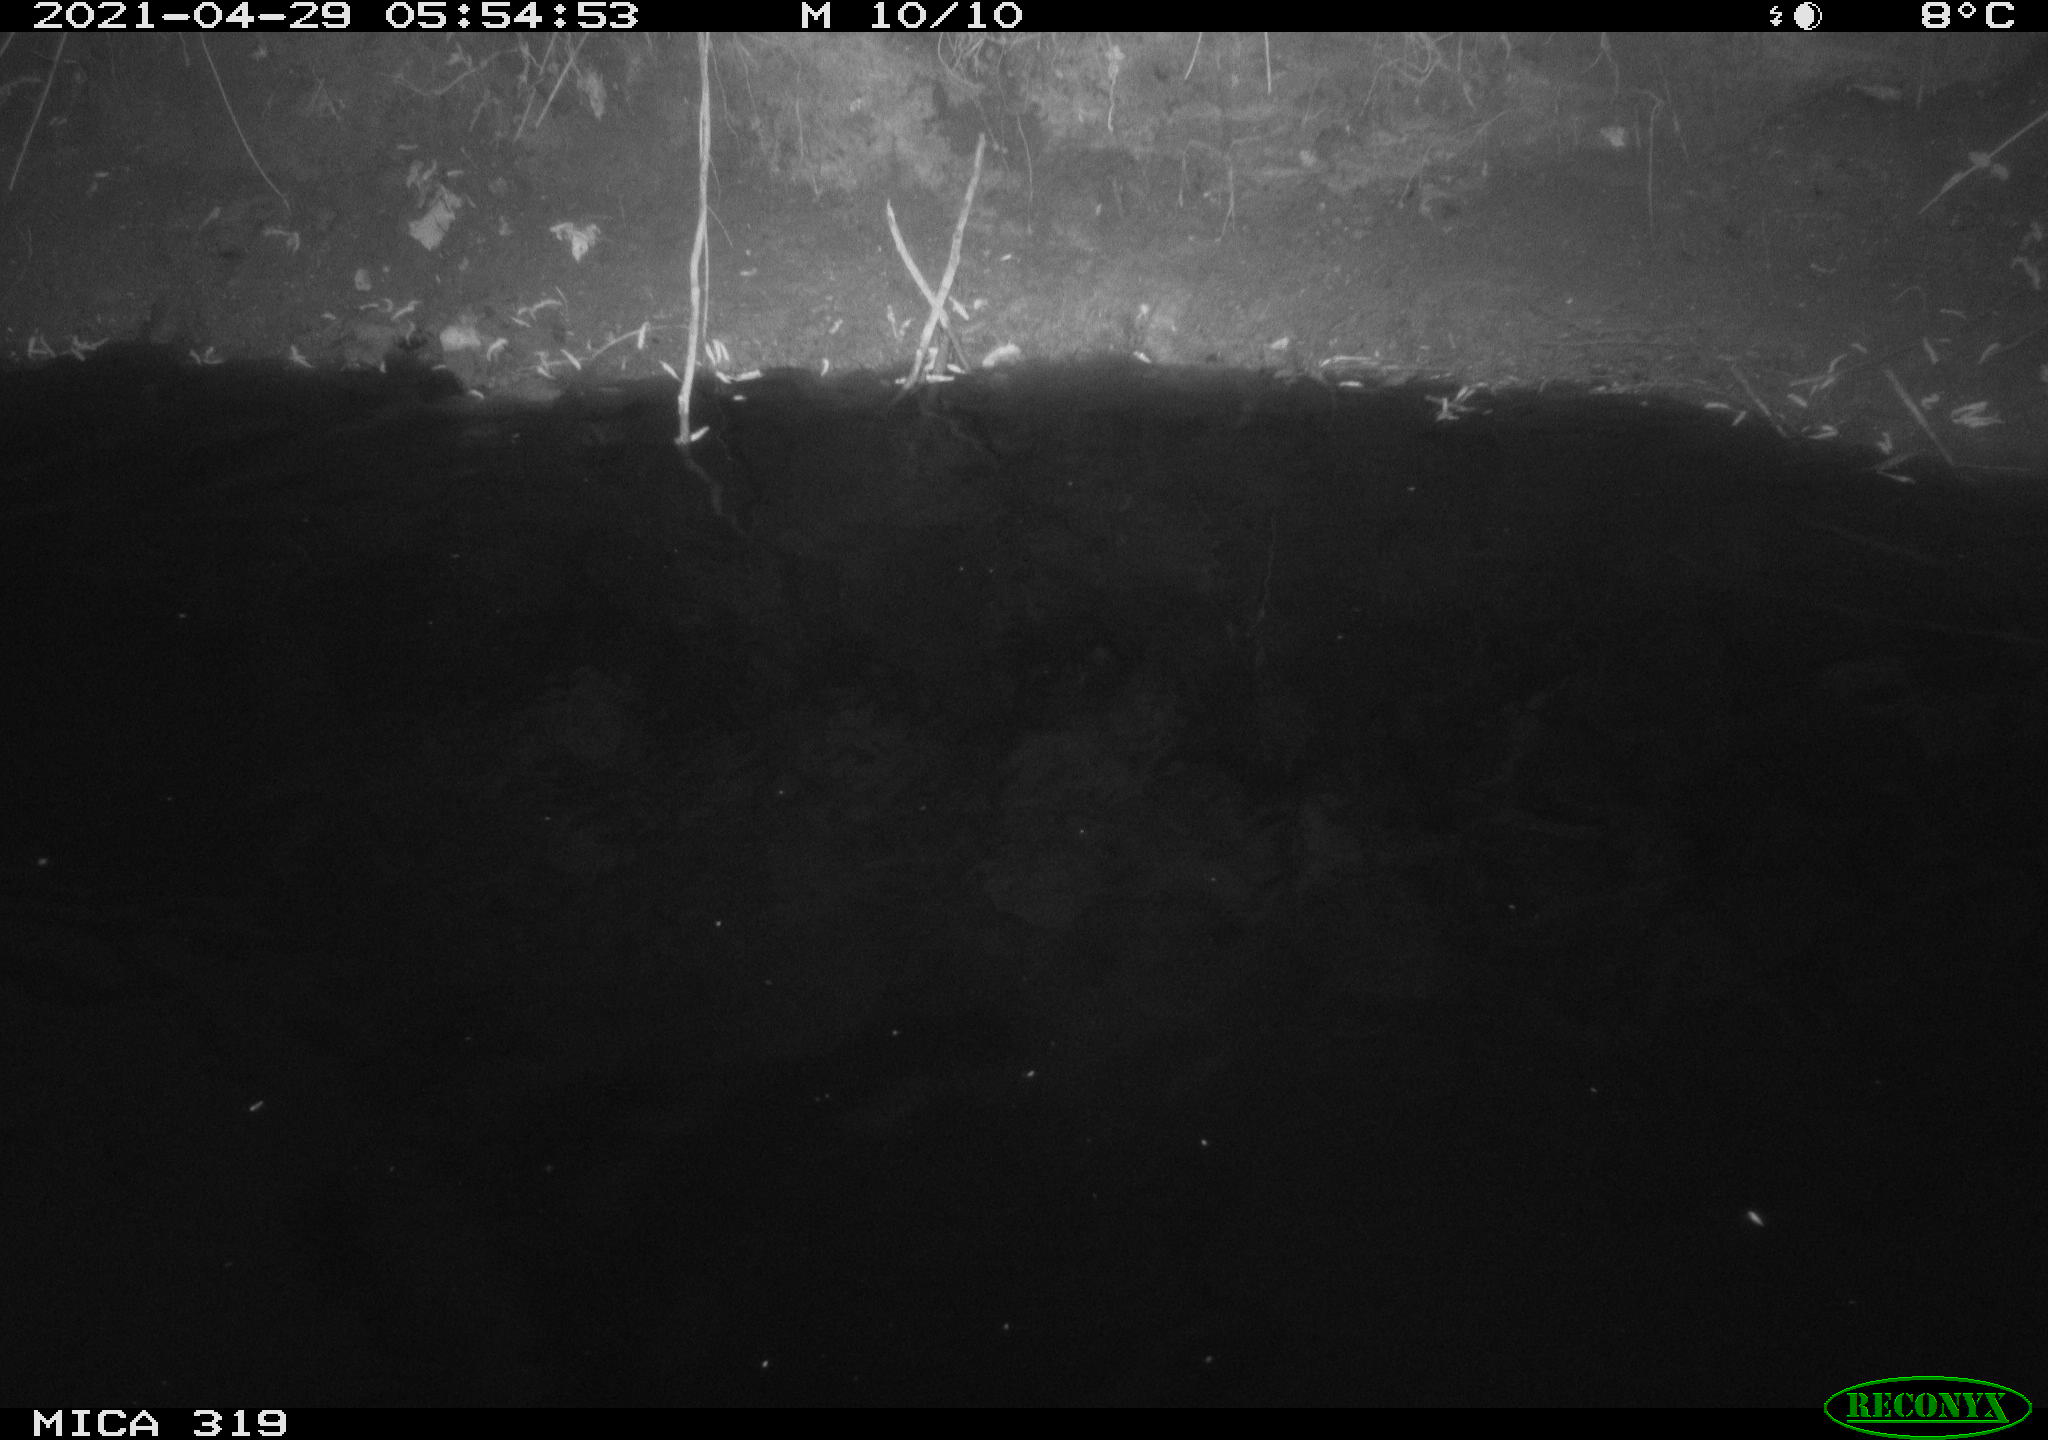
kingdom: Animalia
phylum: Chordata
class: Aves
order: Anseriformes
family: Anatidae
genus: Anas
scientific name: Anas platyrhynchos
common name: Mallard
